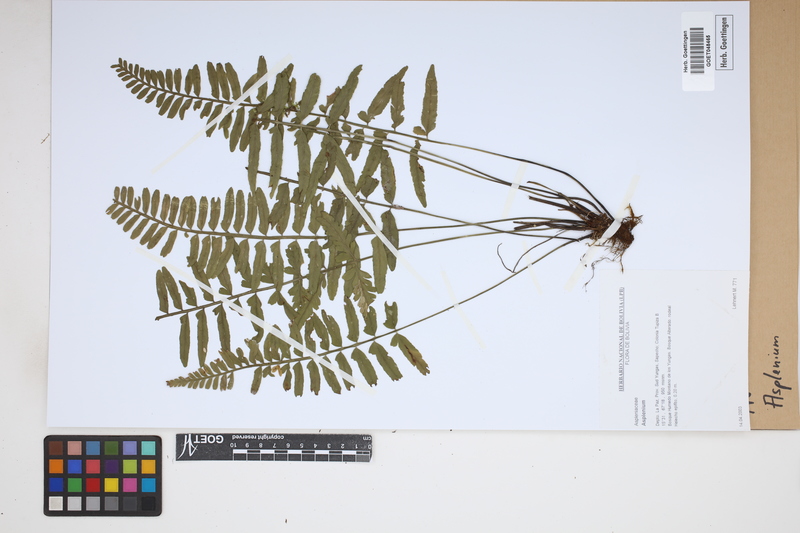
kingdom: Plantae
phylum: Tracheophyta
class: Polypodiopsida
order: Polypodiales
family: Aspleniaceae
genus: Asplenium
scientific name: Asplenium
